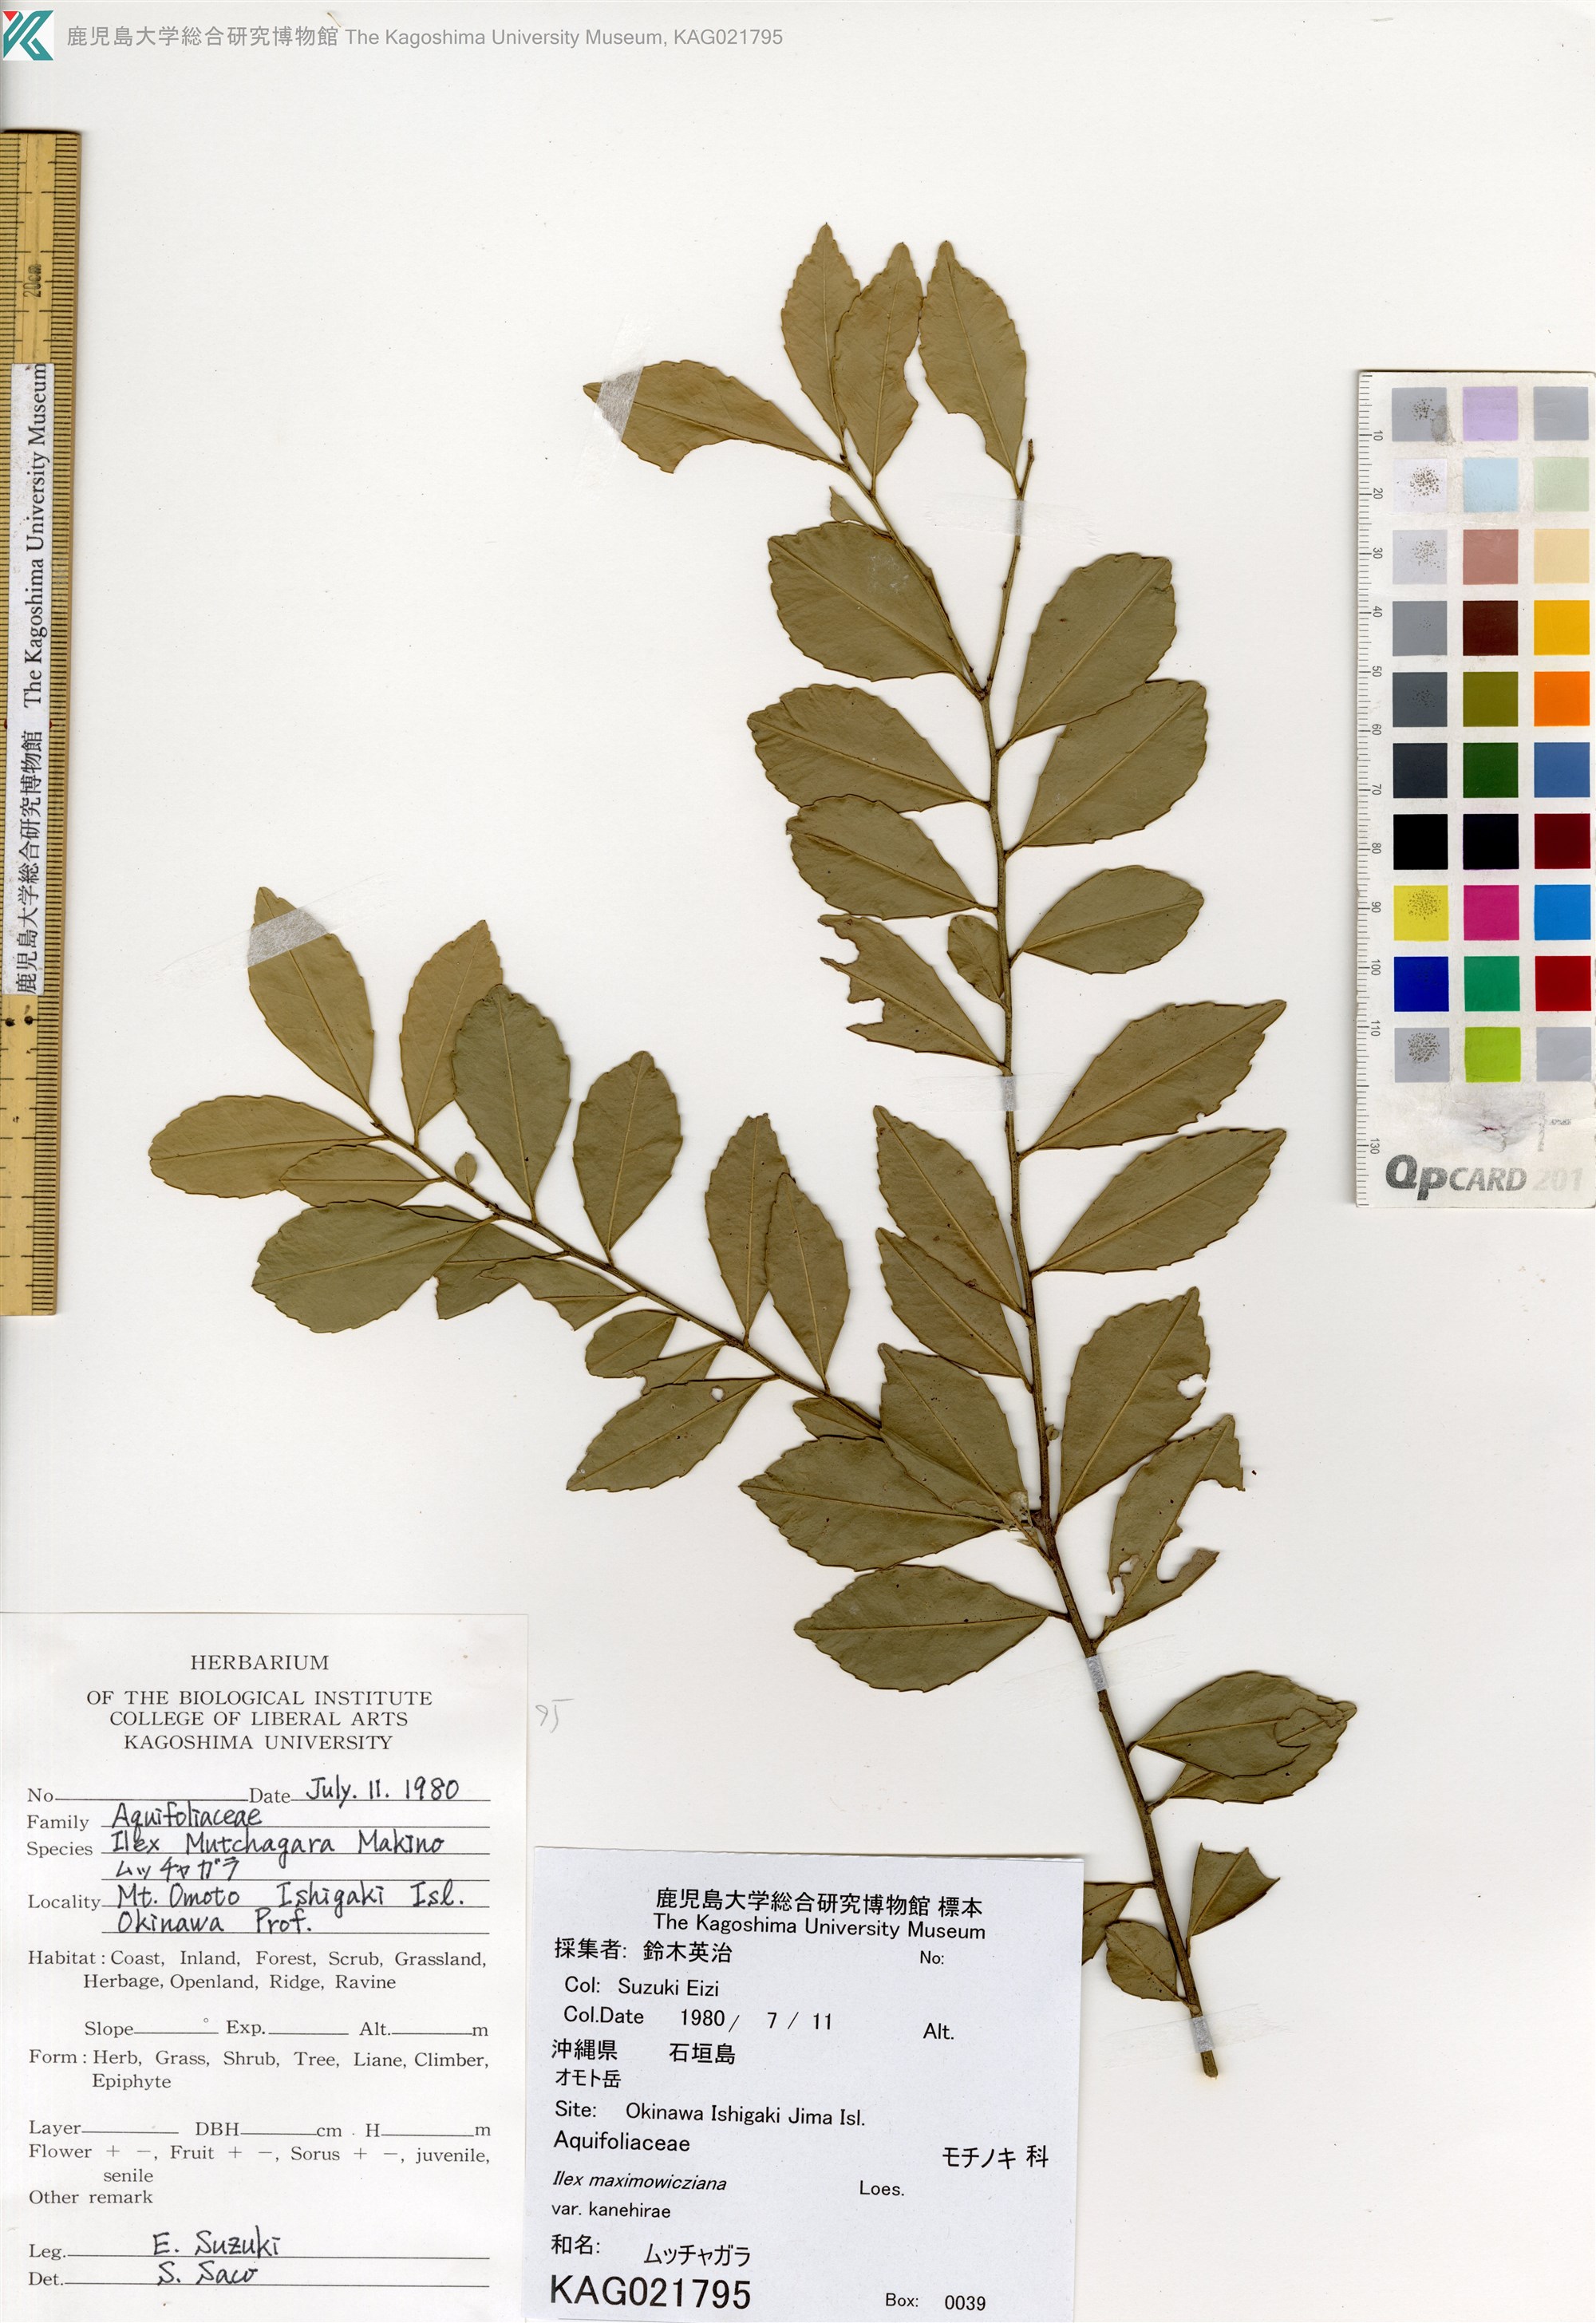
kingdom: Plantae
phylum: Tracheophyta
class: Magnoliopsida
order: Aquifoliales
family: Aquifoliaceae
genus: Ilex
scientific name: Ilex maximowicziana
